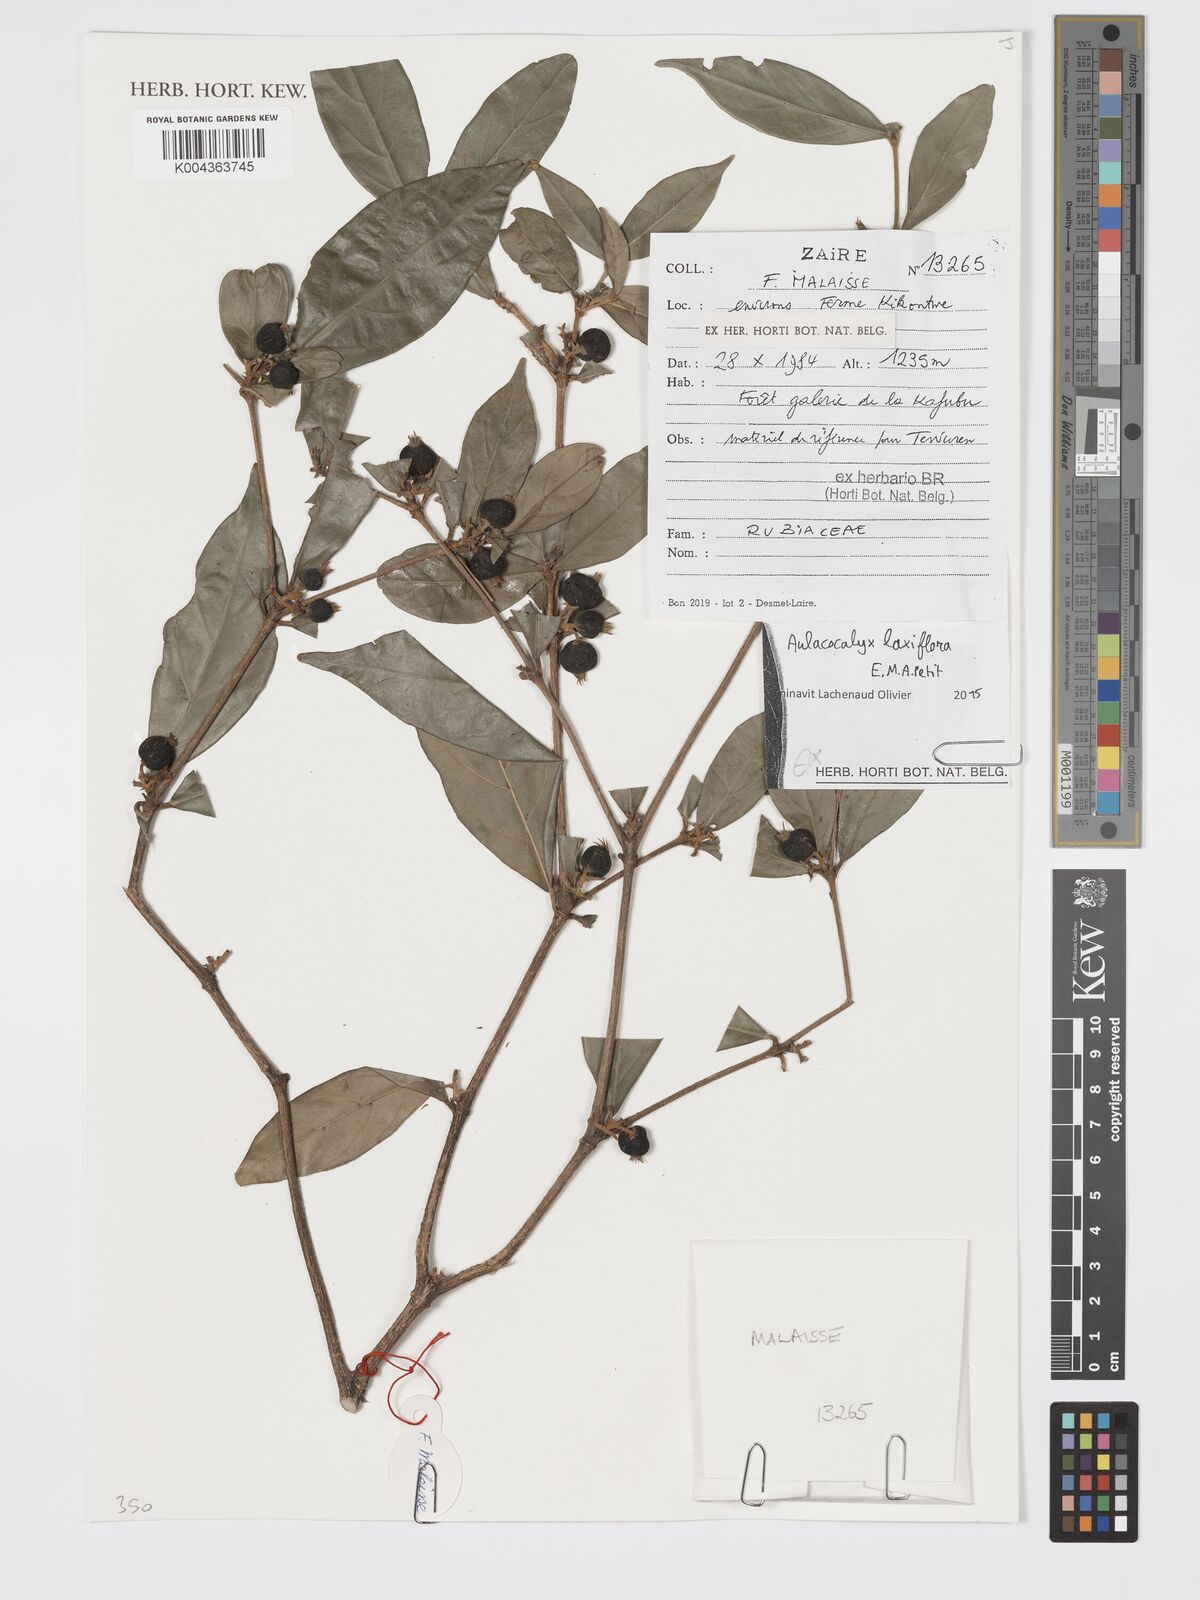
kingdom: Plantae
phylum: Tracheophyta
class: Magnoliopsida
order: Gentianales
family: Rubiaceae
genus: Aulacocalyx
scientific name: Aulacocalyx laxiflora
